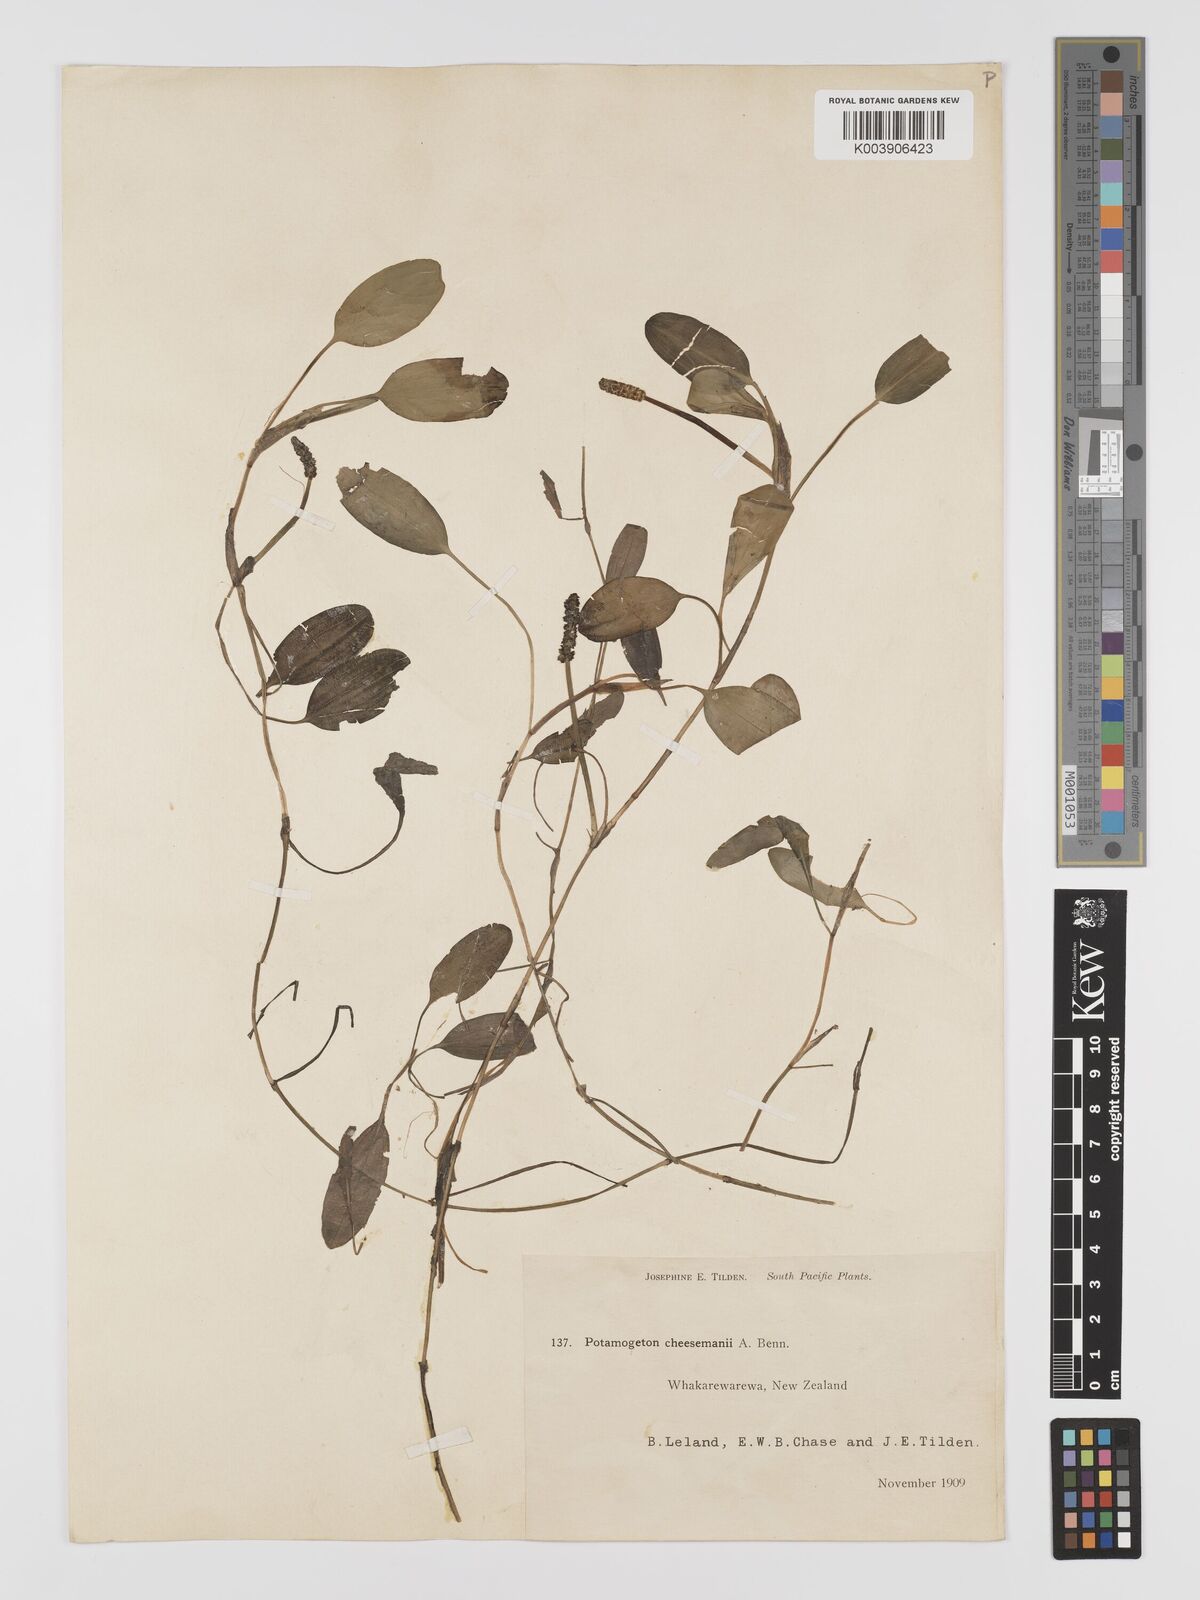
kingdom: Plantae
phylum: Tracheophyta
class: Liliopsida
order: Alismatales
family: Potamogetonaceae
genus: Potamogeton
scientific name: Potamogeton cheesemanii
